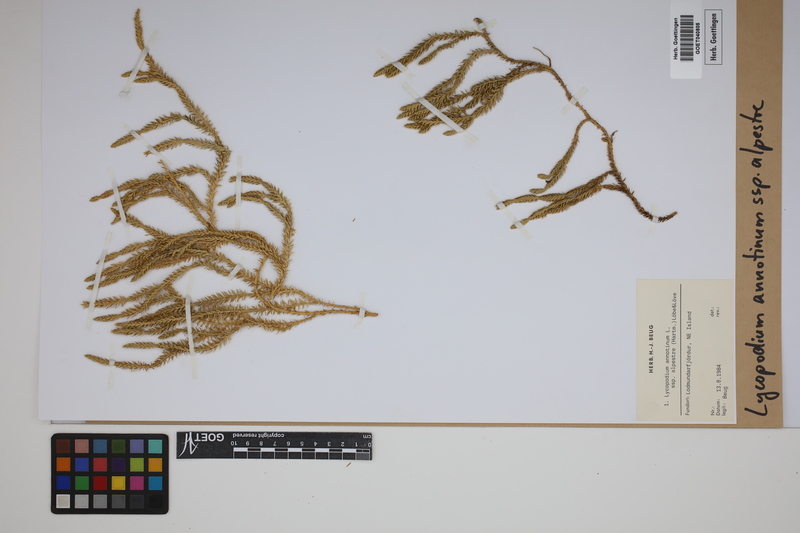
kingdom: Plantae
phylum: Tracheophyta
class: Lycopodiopsida
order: Lycopodiales
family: Lycopodiaceae
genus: Spinulum
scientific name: Spinulum annotinum
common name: Interrupted club-moss
